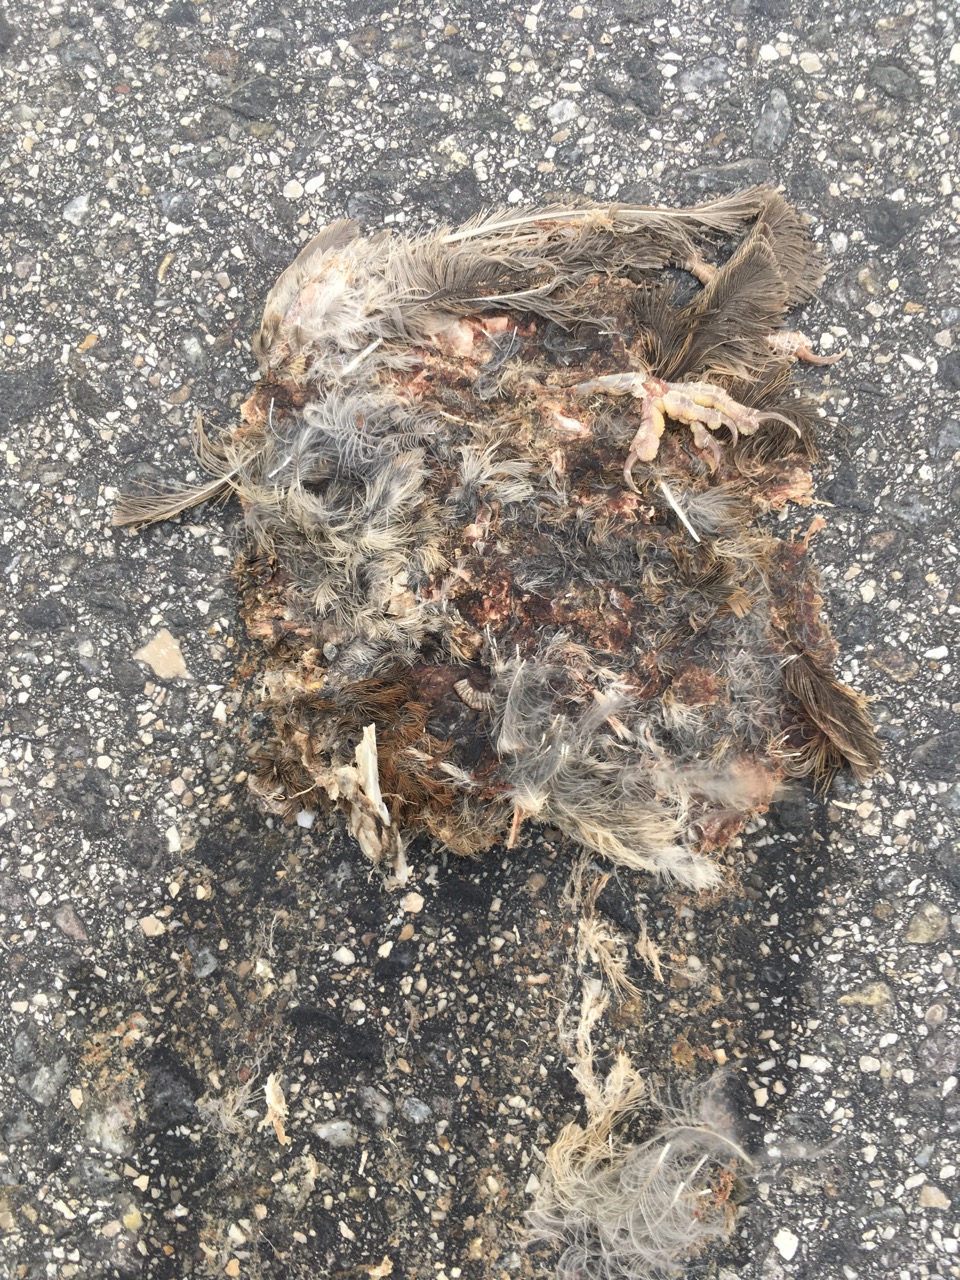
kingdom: Animalia
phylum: Chordata
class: Aves
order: Passeriformes
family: Passeridae
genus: Passer
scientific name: Passer
